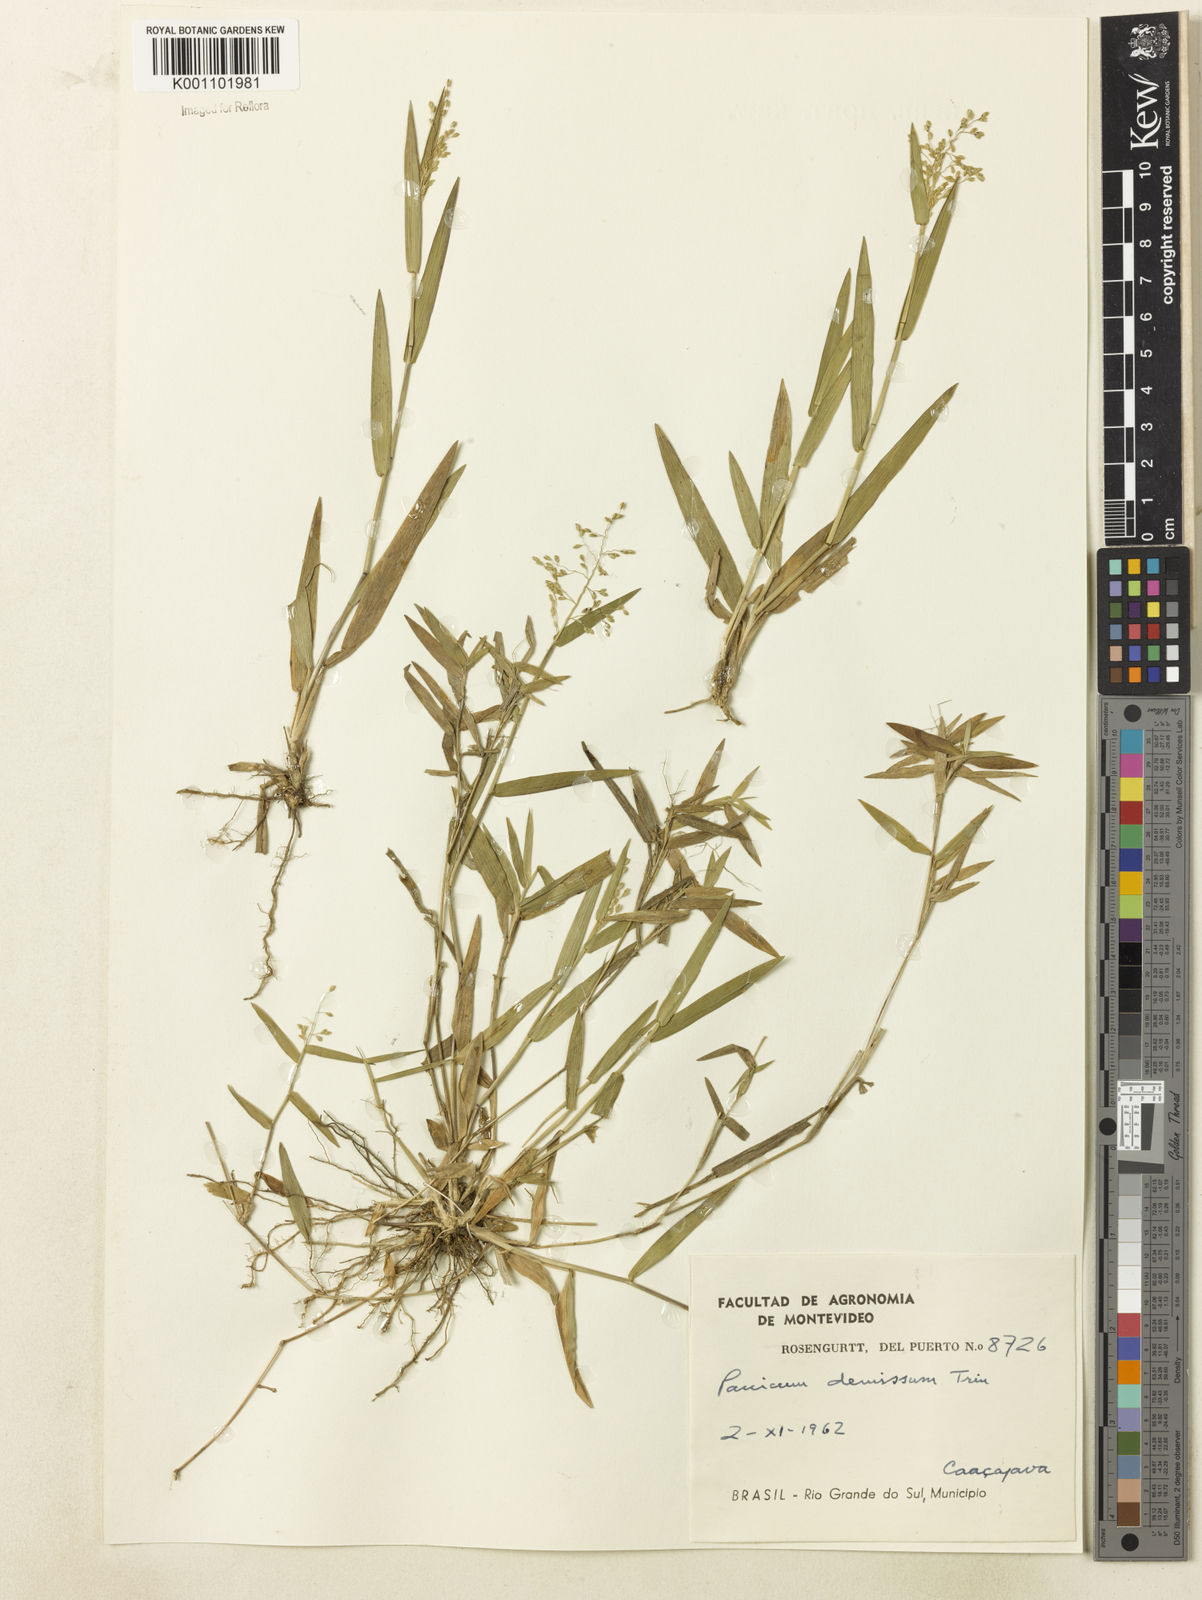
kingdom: Plantae
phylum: Tracheophyta
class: Liliopsida
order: Poales
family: Poaceae
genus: Dichanthelium
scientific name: Dichanthelium sabulorum
